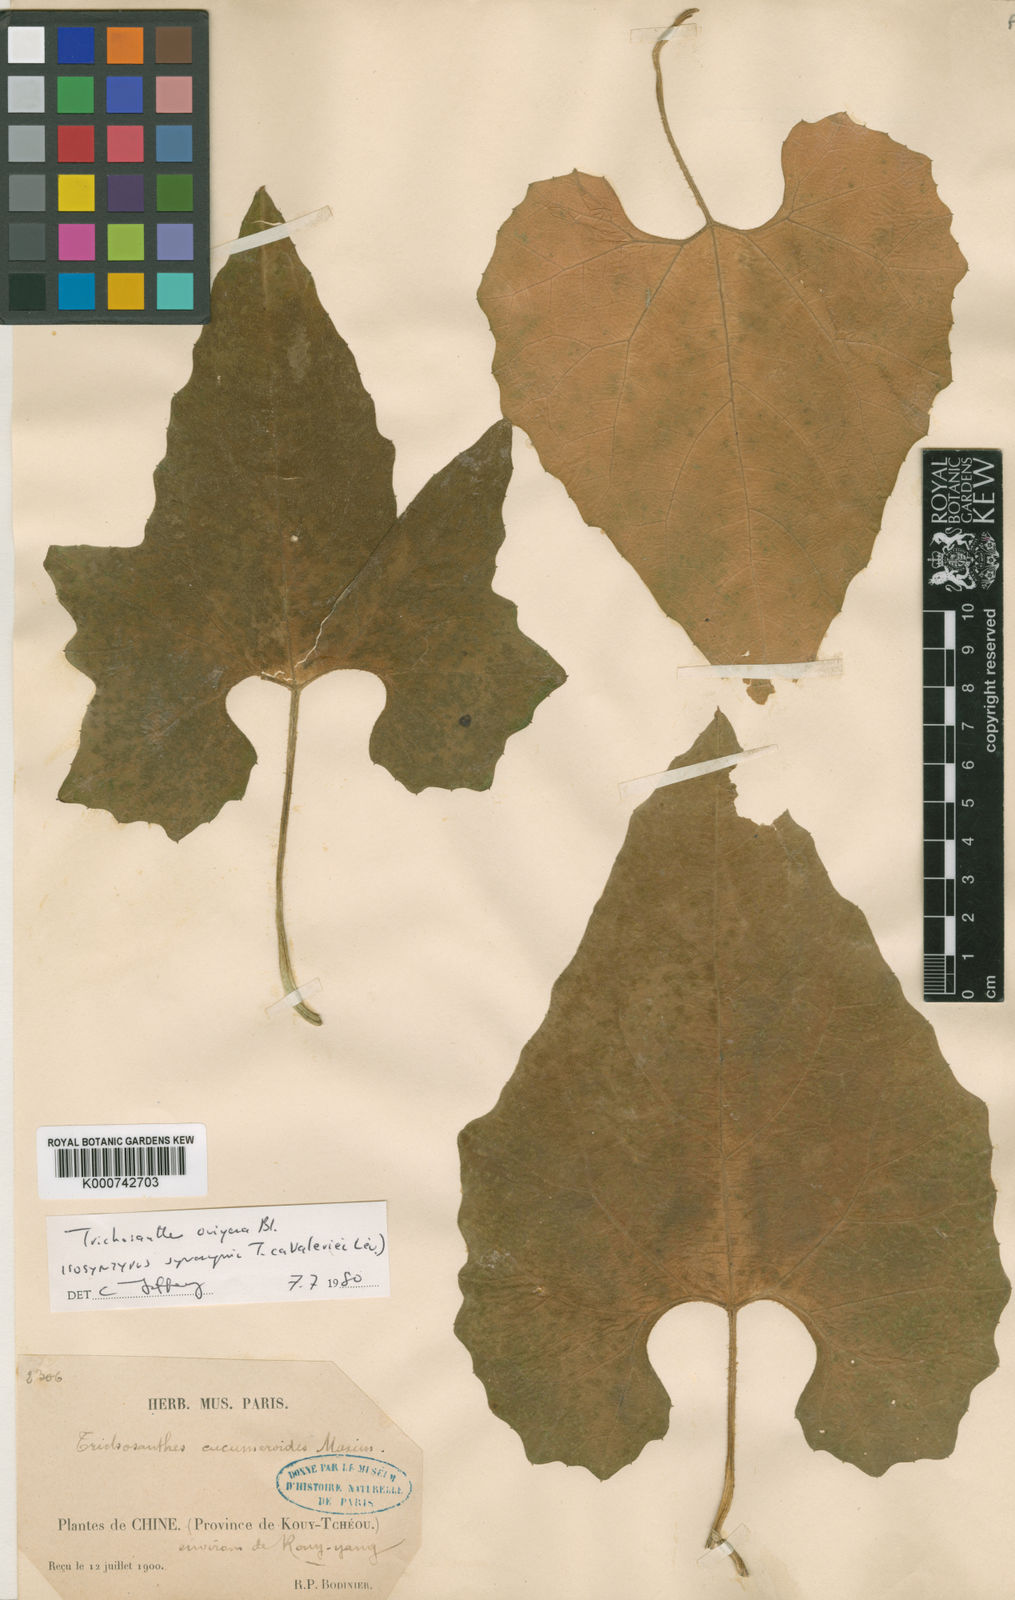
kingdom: Plantae
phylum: Tracheophyta
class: Magnoliopsida
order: Cucurbitales
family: Cucurbitaceae
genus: Trichosanthes
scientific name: Trichosanthes ovigera
